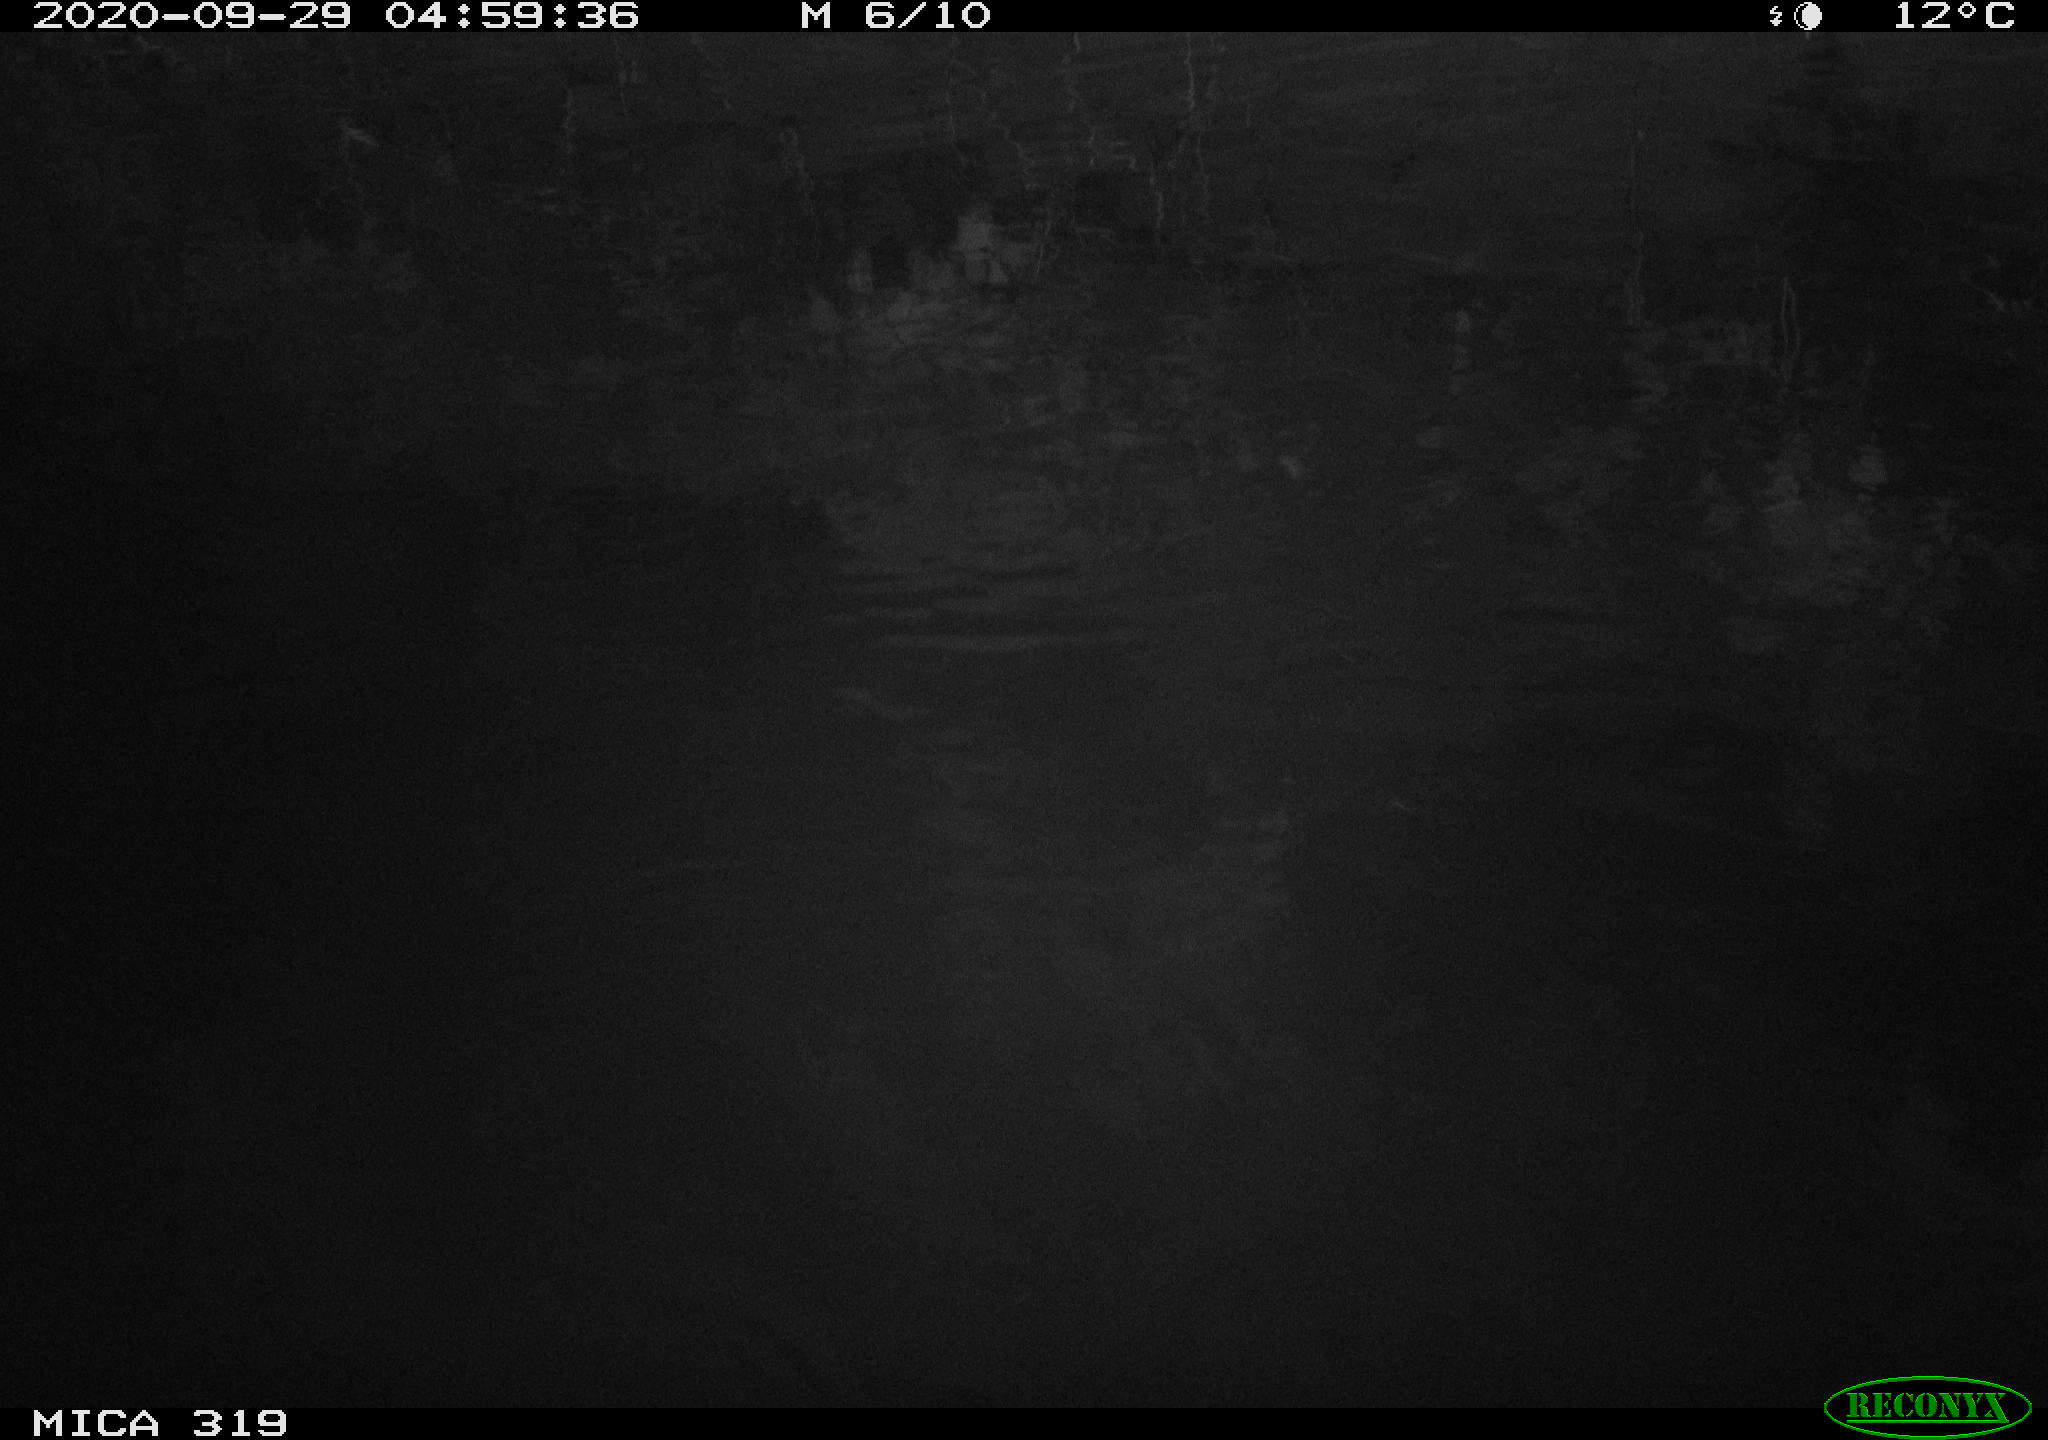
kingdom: Animalia
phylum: Chordata
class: Mammalia
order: Rodentia
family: Muridae
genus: Rattus
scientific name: Rattus norvegicus
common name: Brown rat
